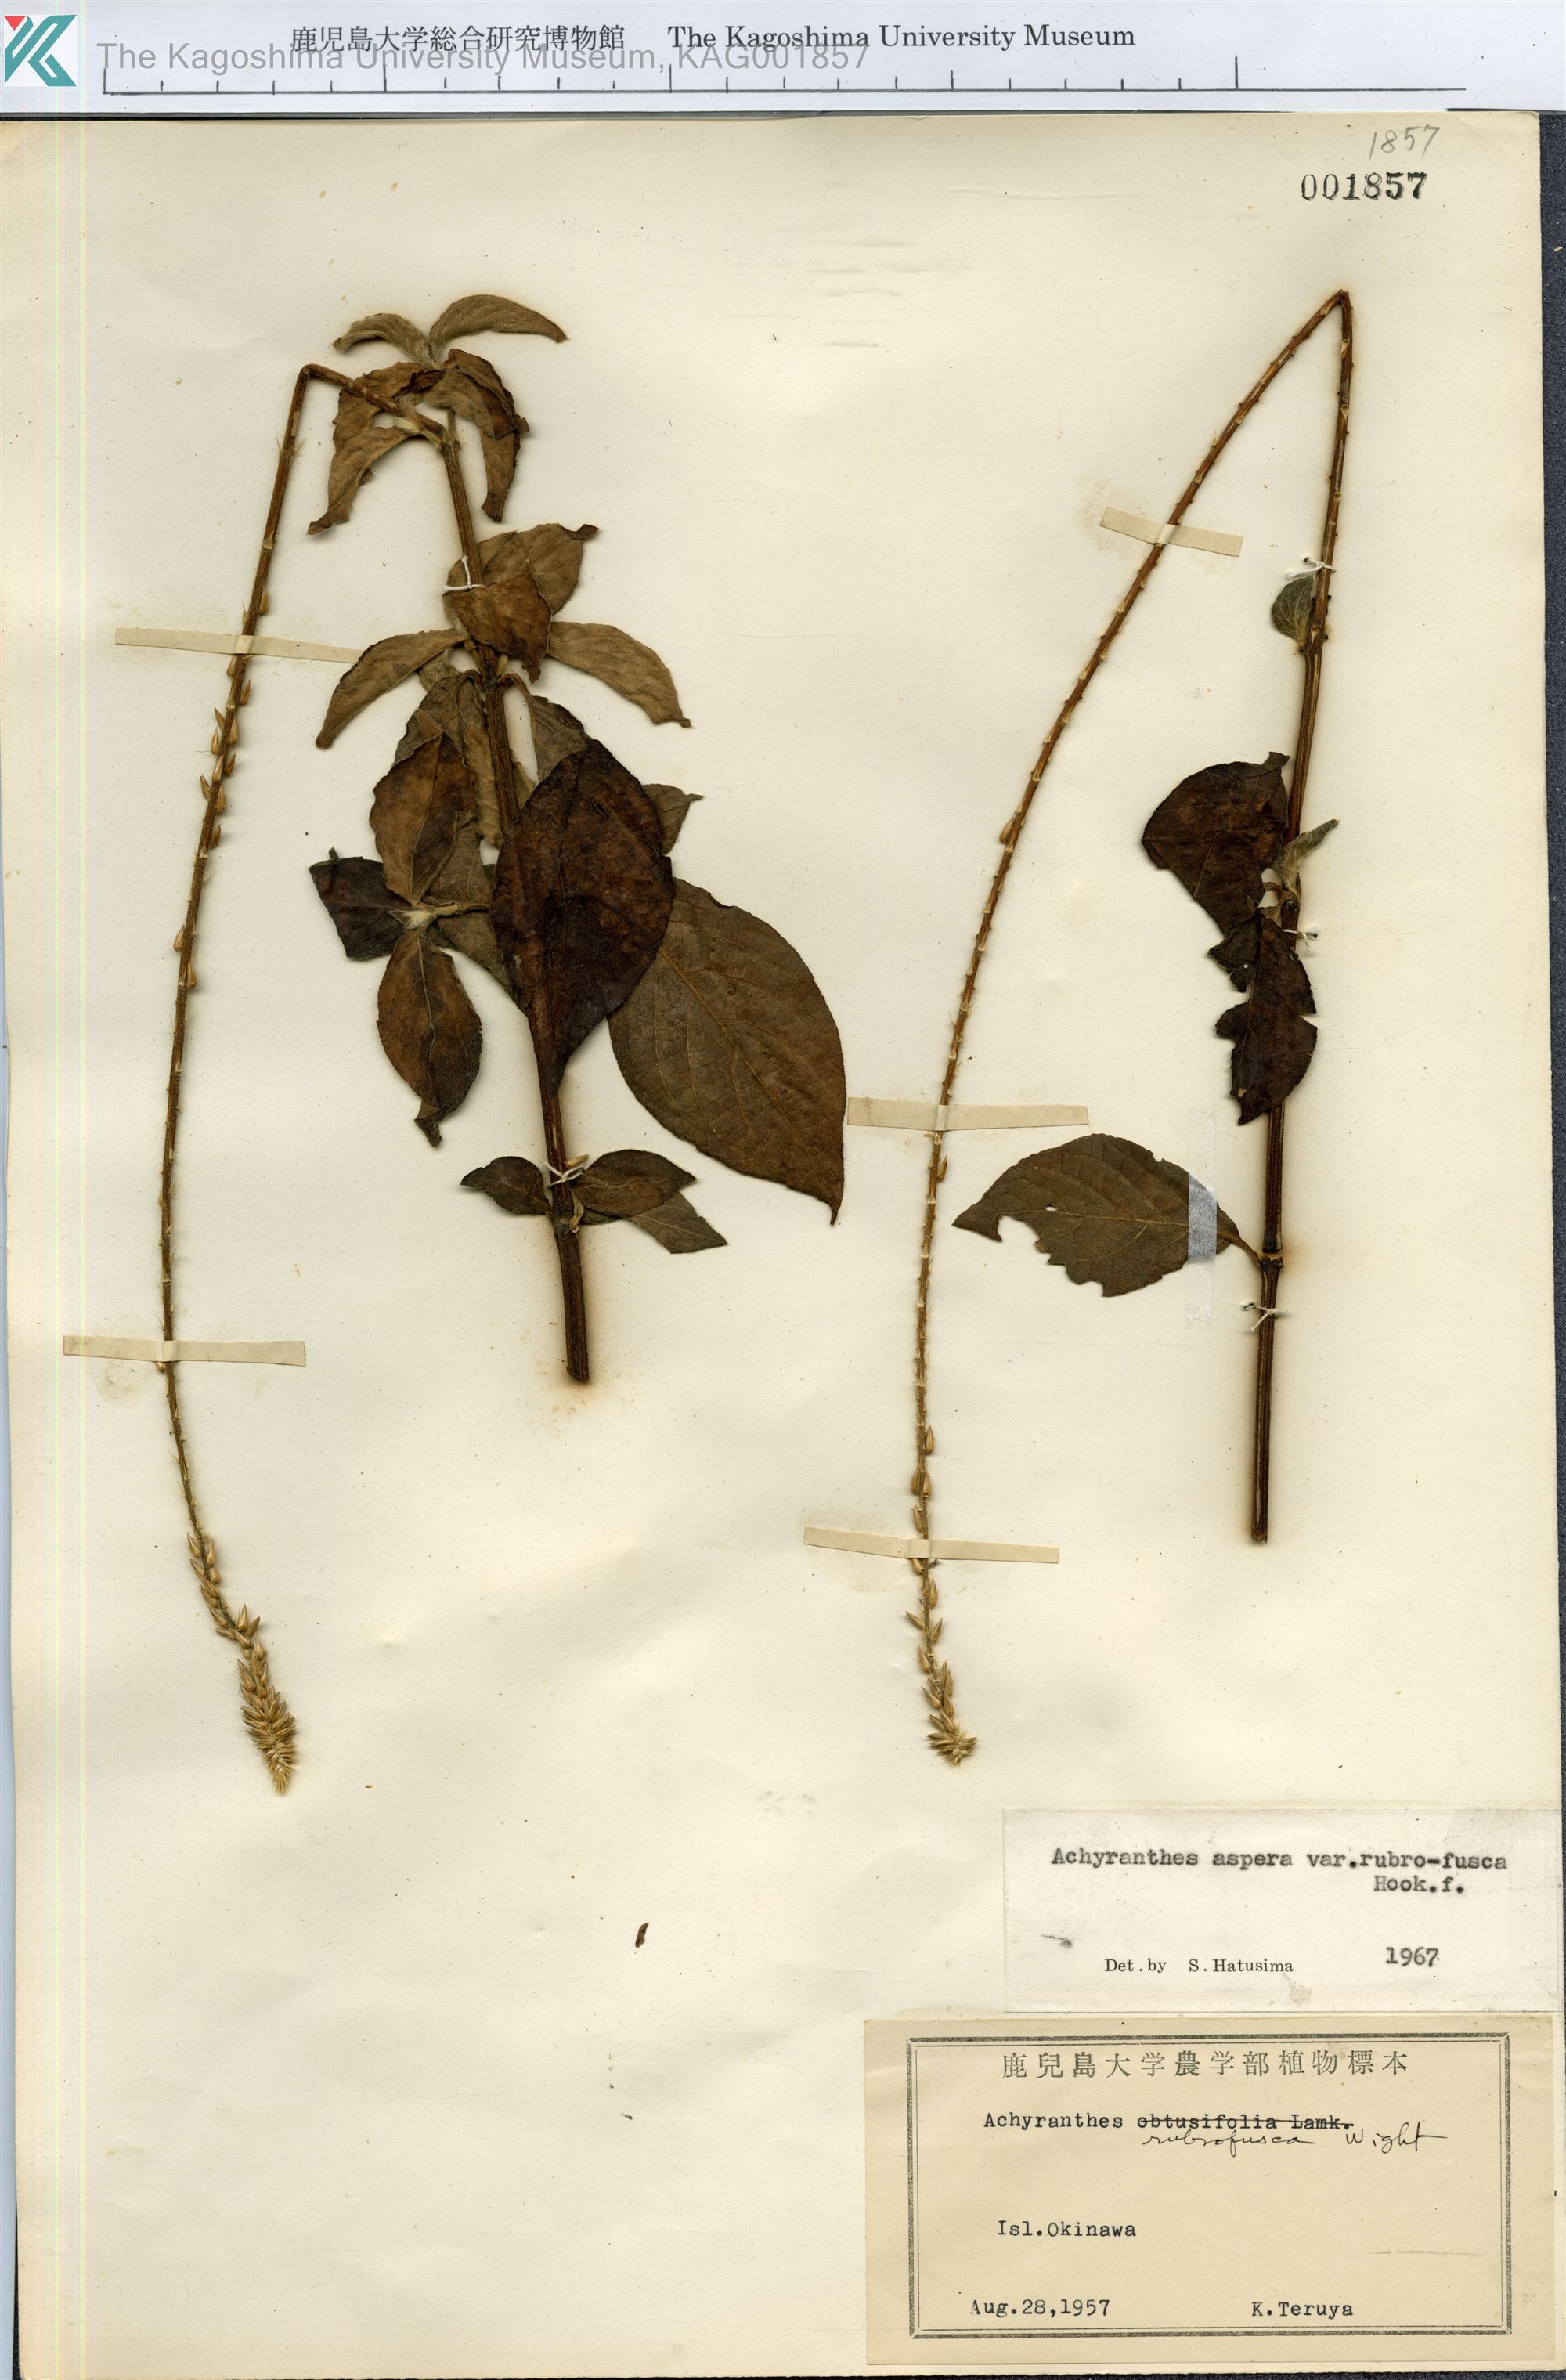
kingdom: Plantae
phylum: Tracheophyta
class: Magnoliopsida
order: Caryophyllales
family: Amaranthaceae
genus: Achyranthes
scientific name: Achyranthes aspera
